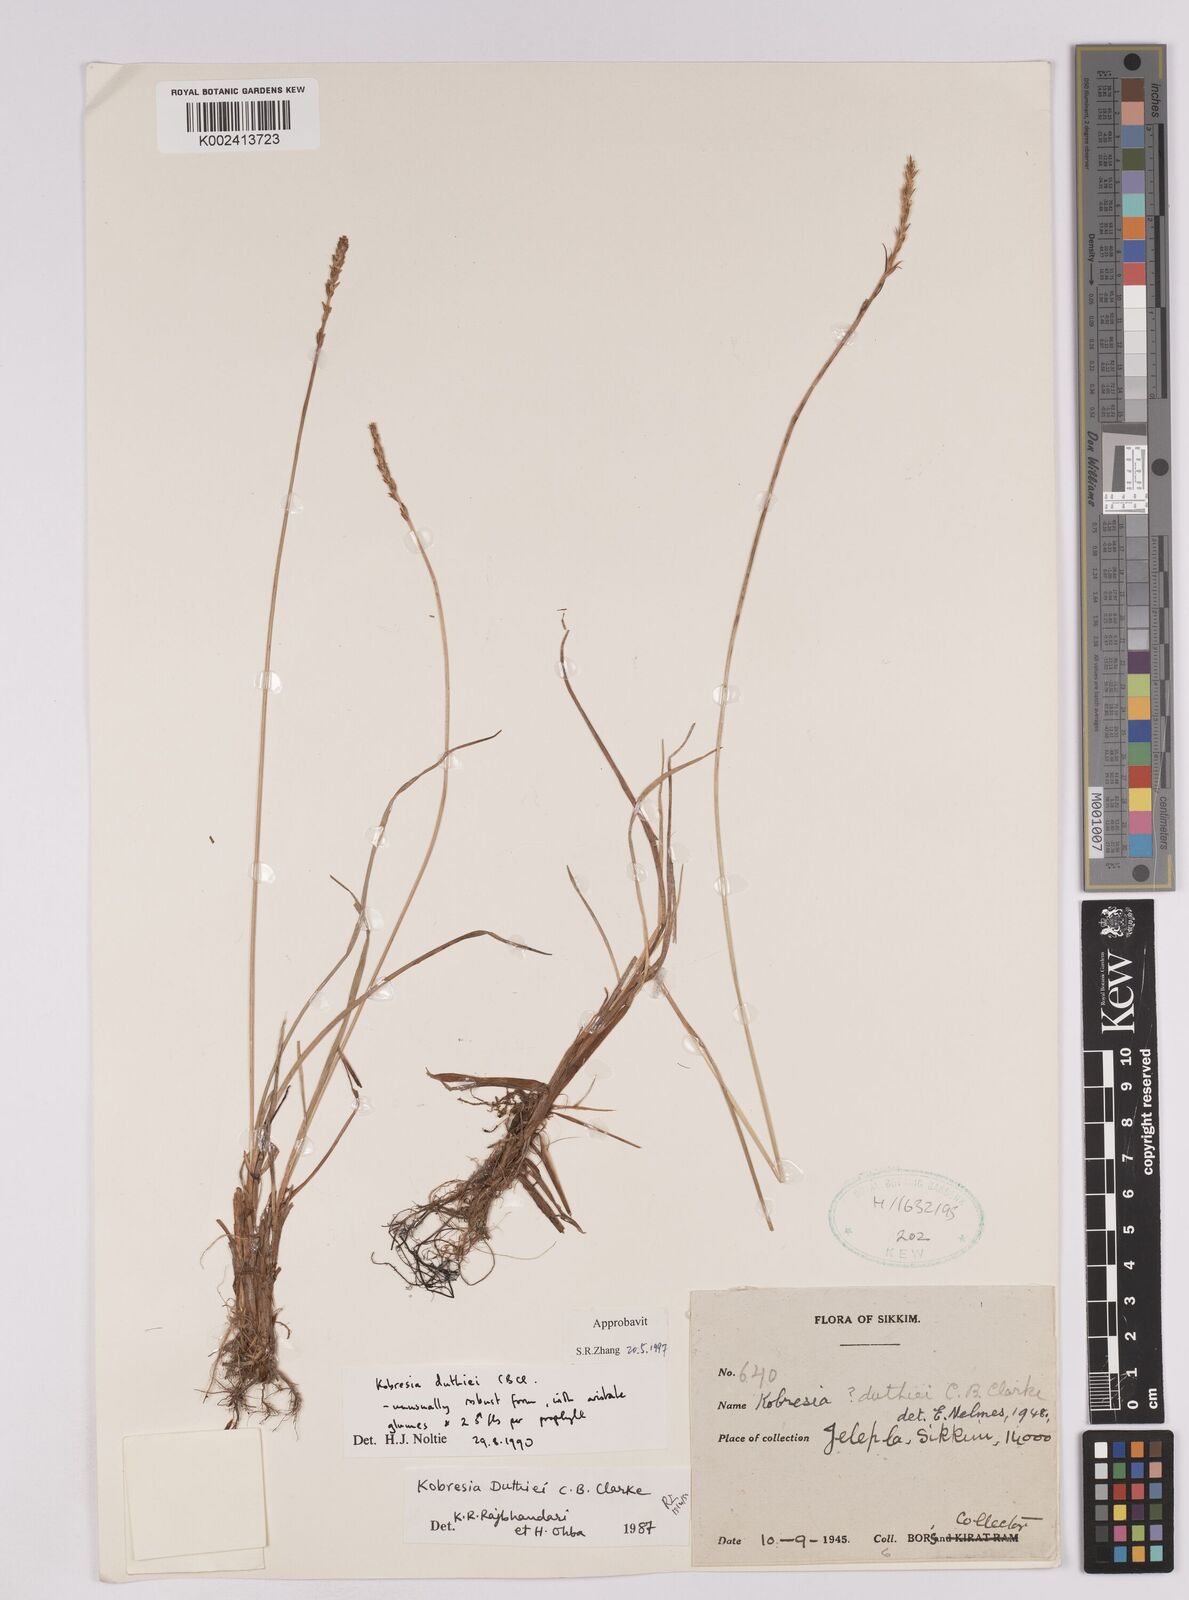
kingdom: Plantae
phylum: Tracheophyta
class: Liliopsida
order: Poales
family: Cyperaceae
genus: Carex
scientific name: Carex clavispica
